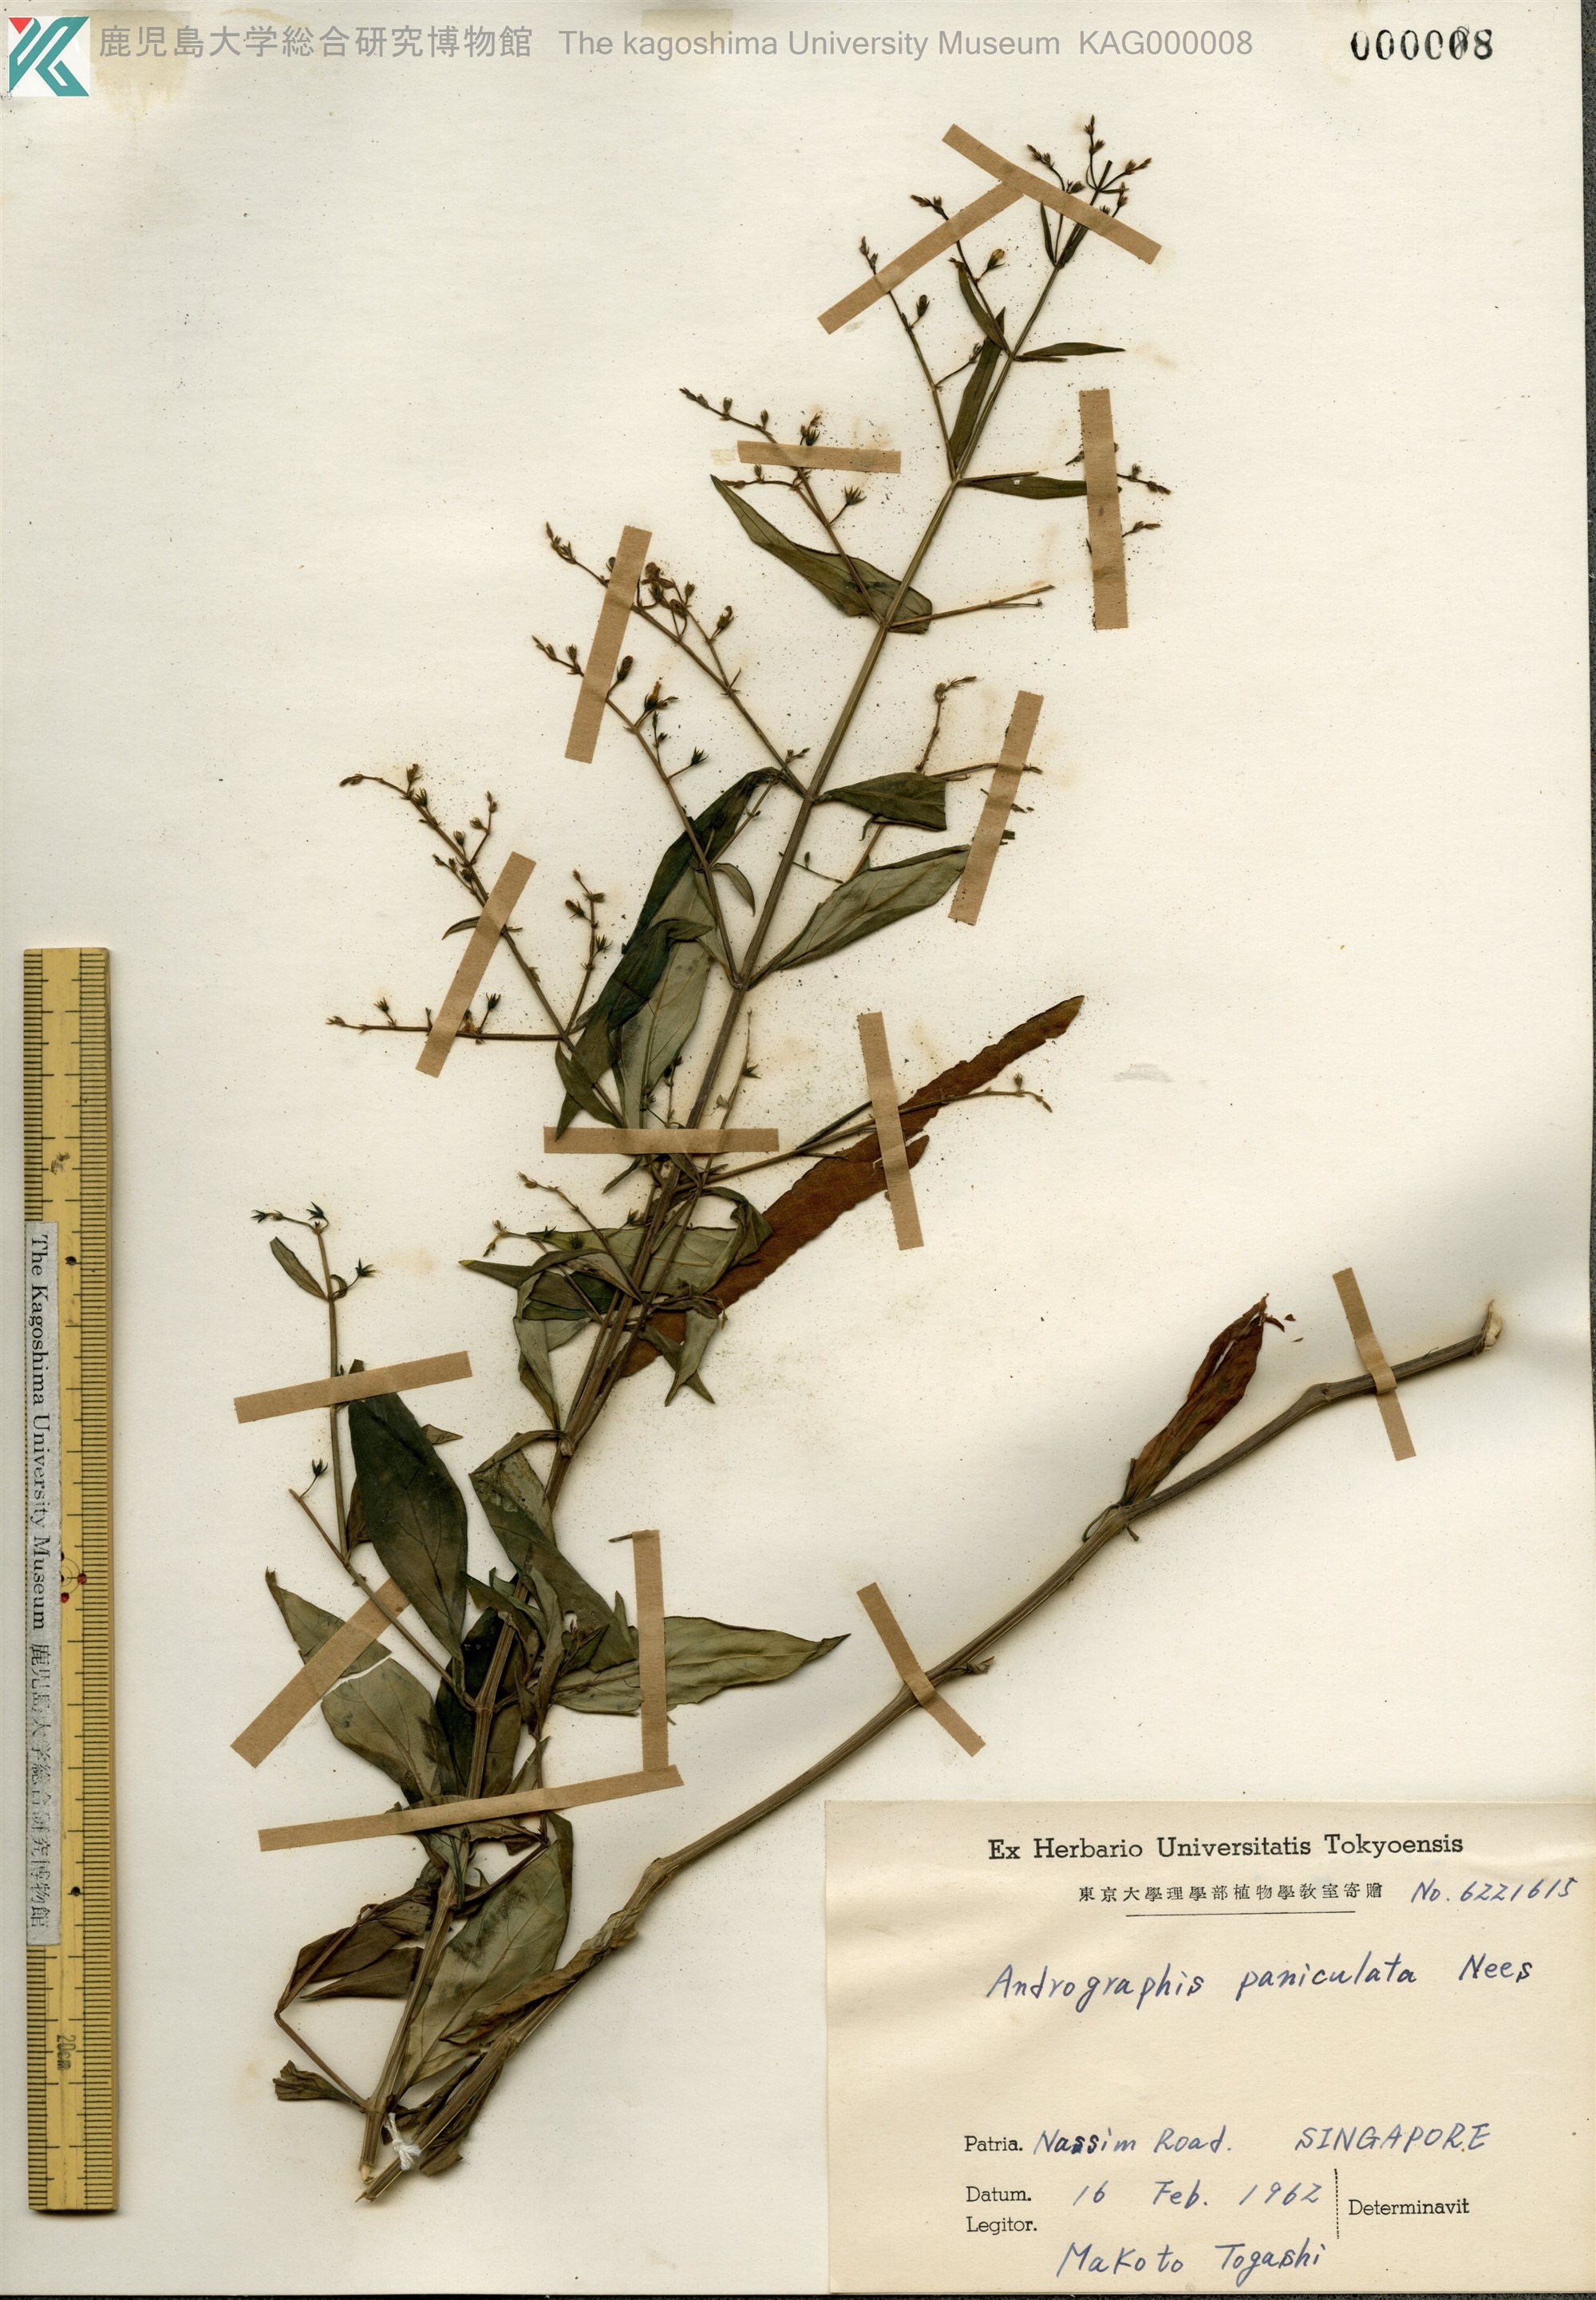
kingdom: Plantae
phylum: Tracheophyta
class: Magnoliopsida
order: Lamiales
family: Acanthaceae
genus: Andrographis
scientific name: Andrographis paniculata
